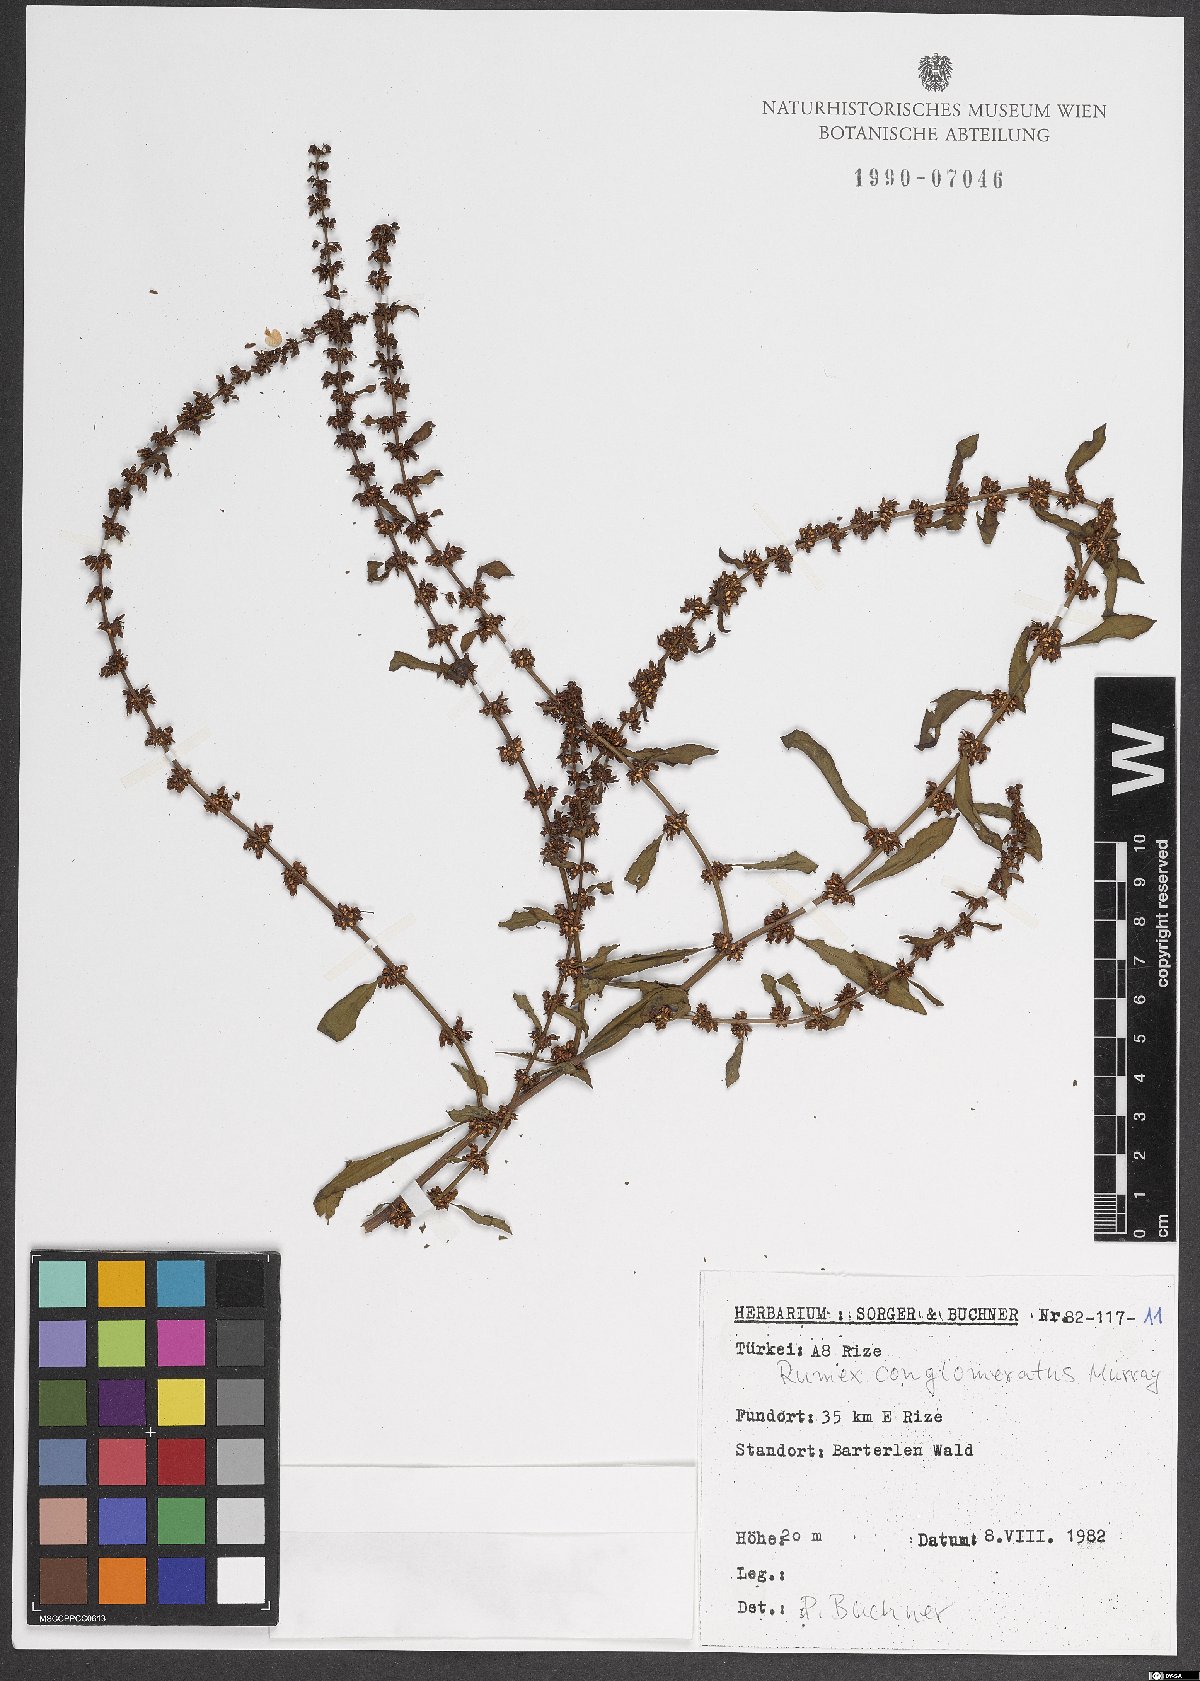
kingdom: Plantae
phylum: Tracheophyta
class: Magnoliopsida
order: Caryophyllales
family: Polygonaceae
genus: Rumex
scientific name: Rumex conglomeratus
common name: Clustered dock
